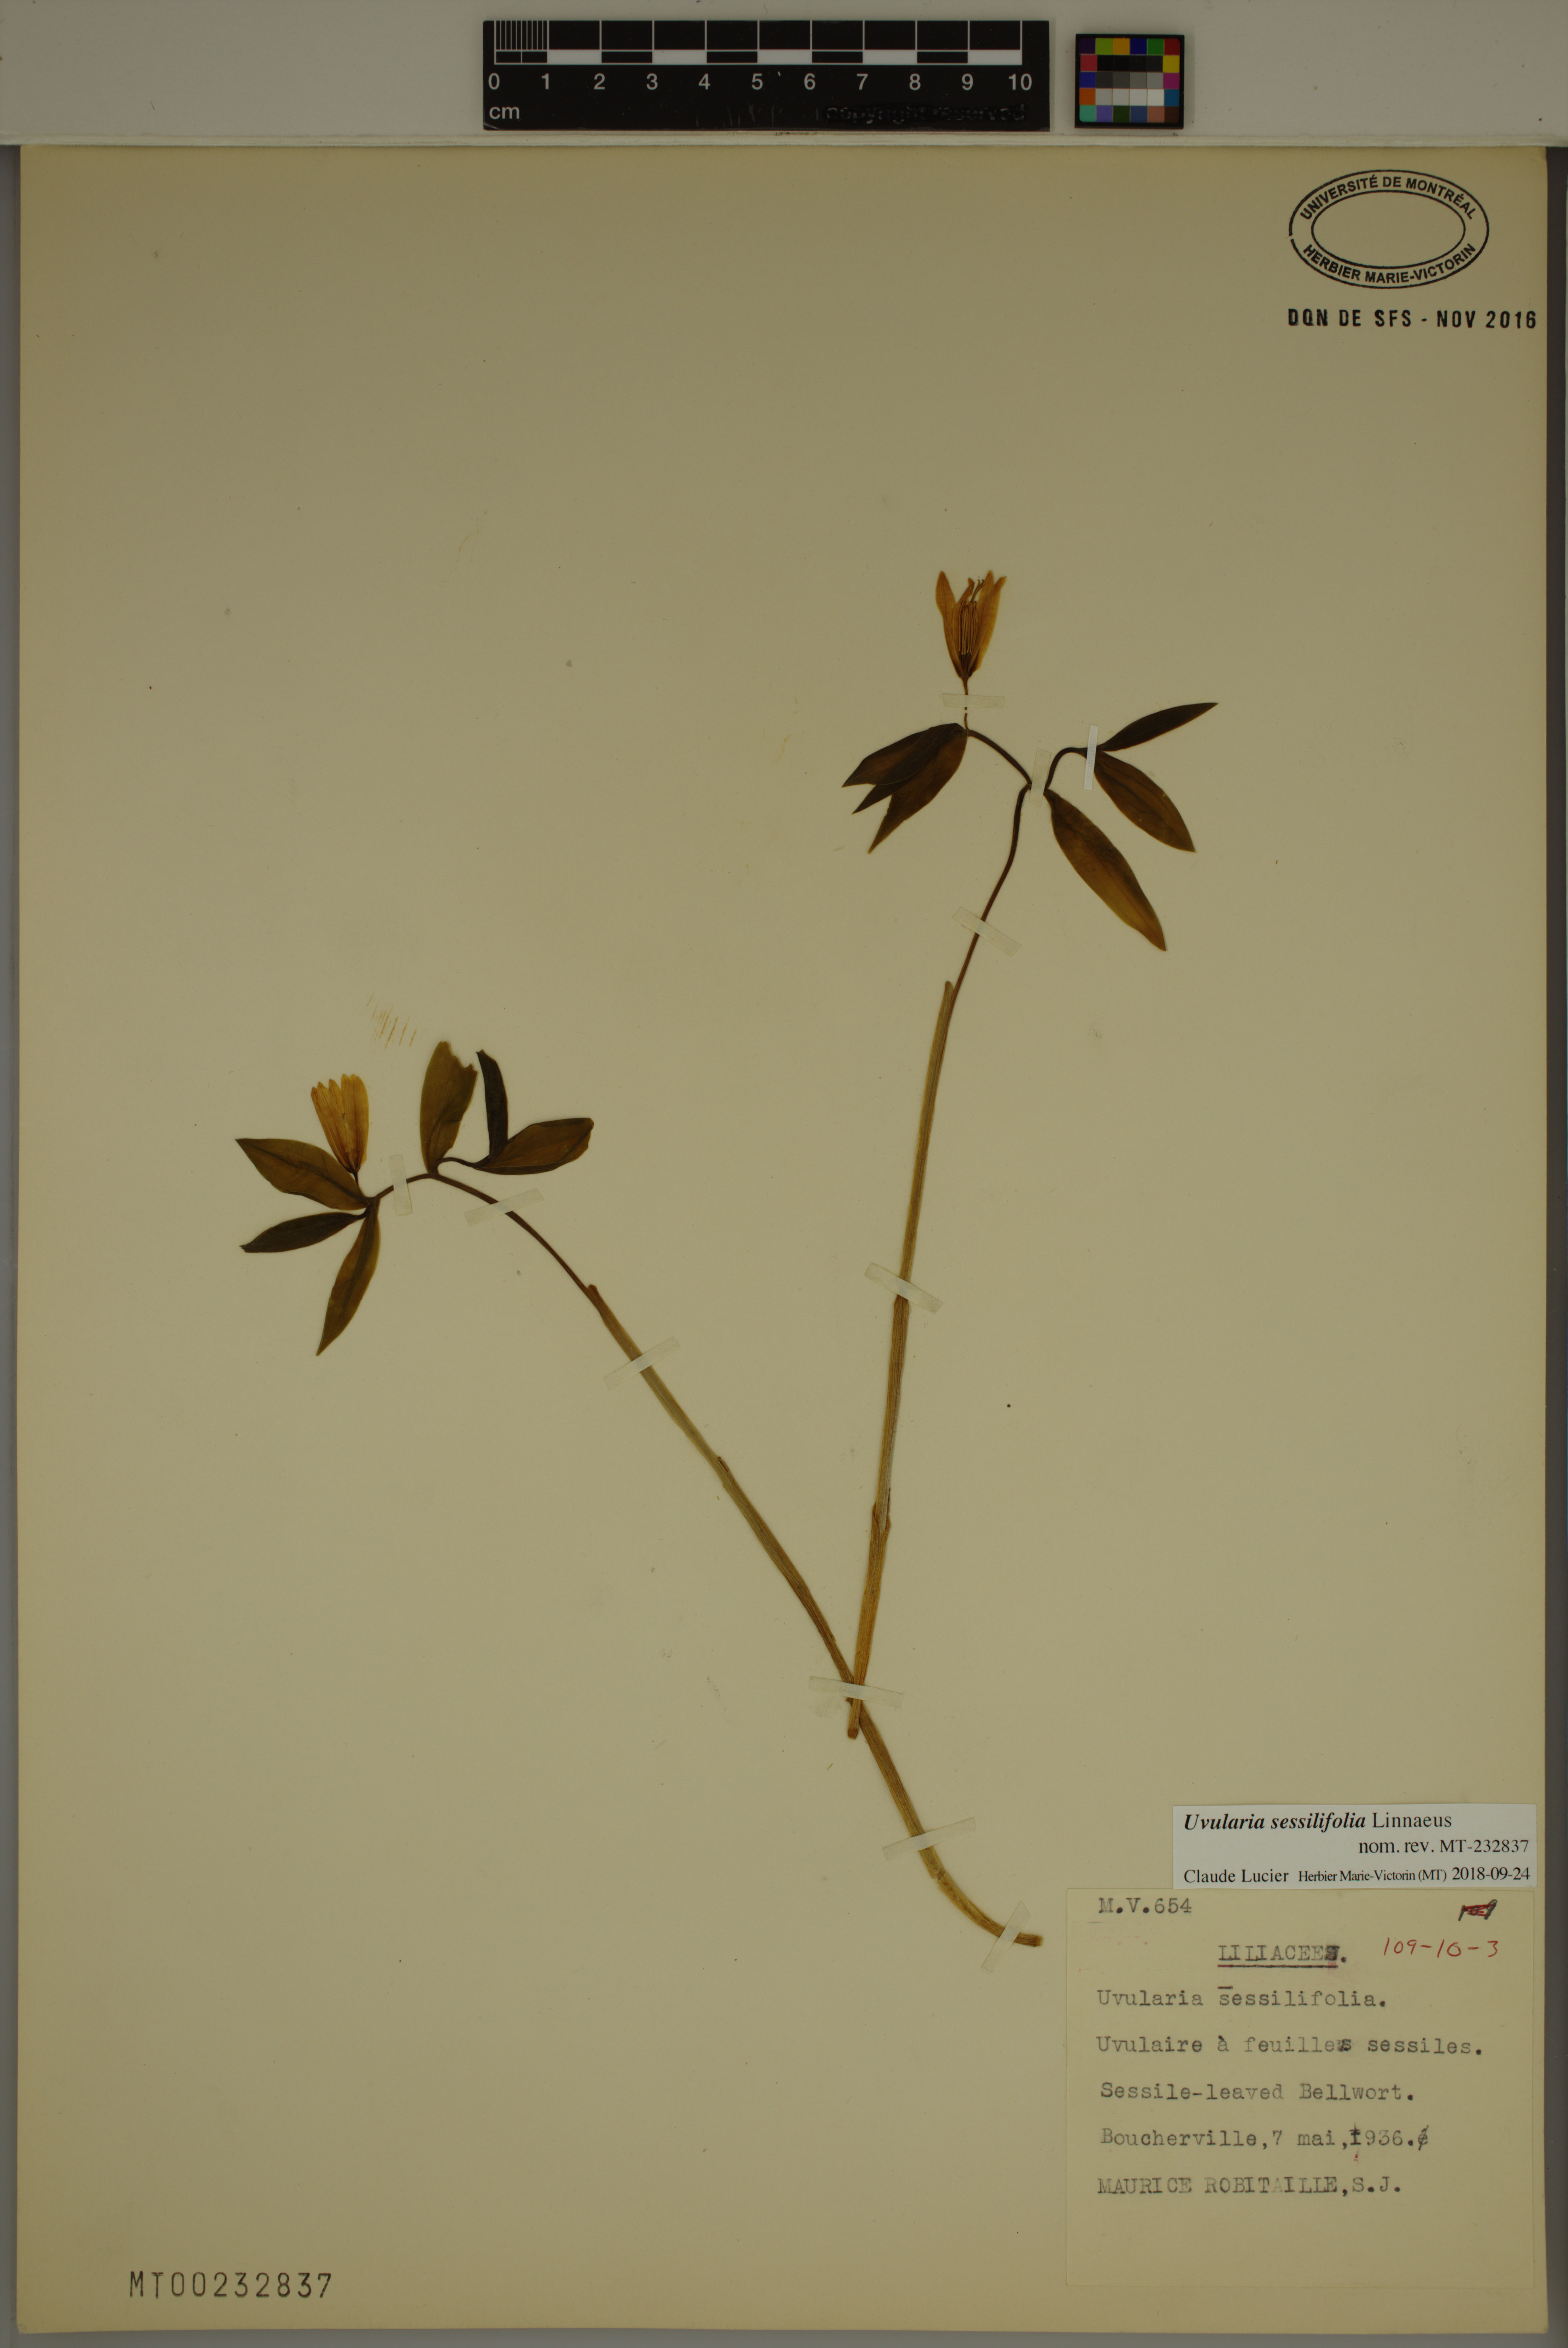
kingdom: Plantae
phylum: Tracheophyta
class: Liliopsida
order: Liliales
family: Colchicaceae
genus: Uvularia
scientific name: Uvularia sessilifolia
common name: Straw-lily
